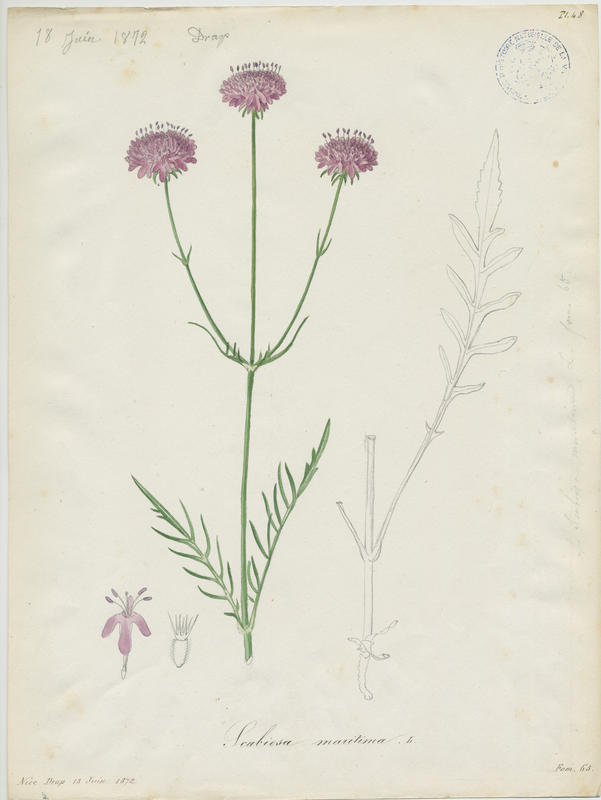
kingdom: Plantae
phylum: Tracheophyta
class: Magnoliopsida
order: Dipsacales
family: Caprifoliaceae
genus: Sixalix
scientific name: Sixalix atropurpurea
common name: Sweet scabious
